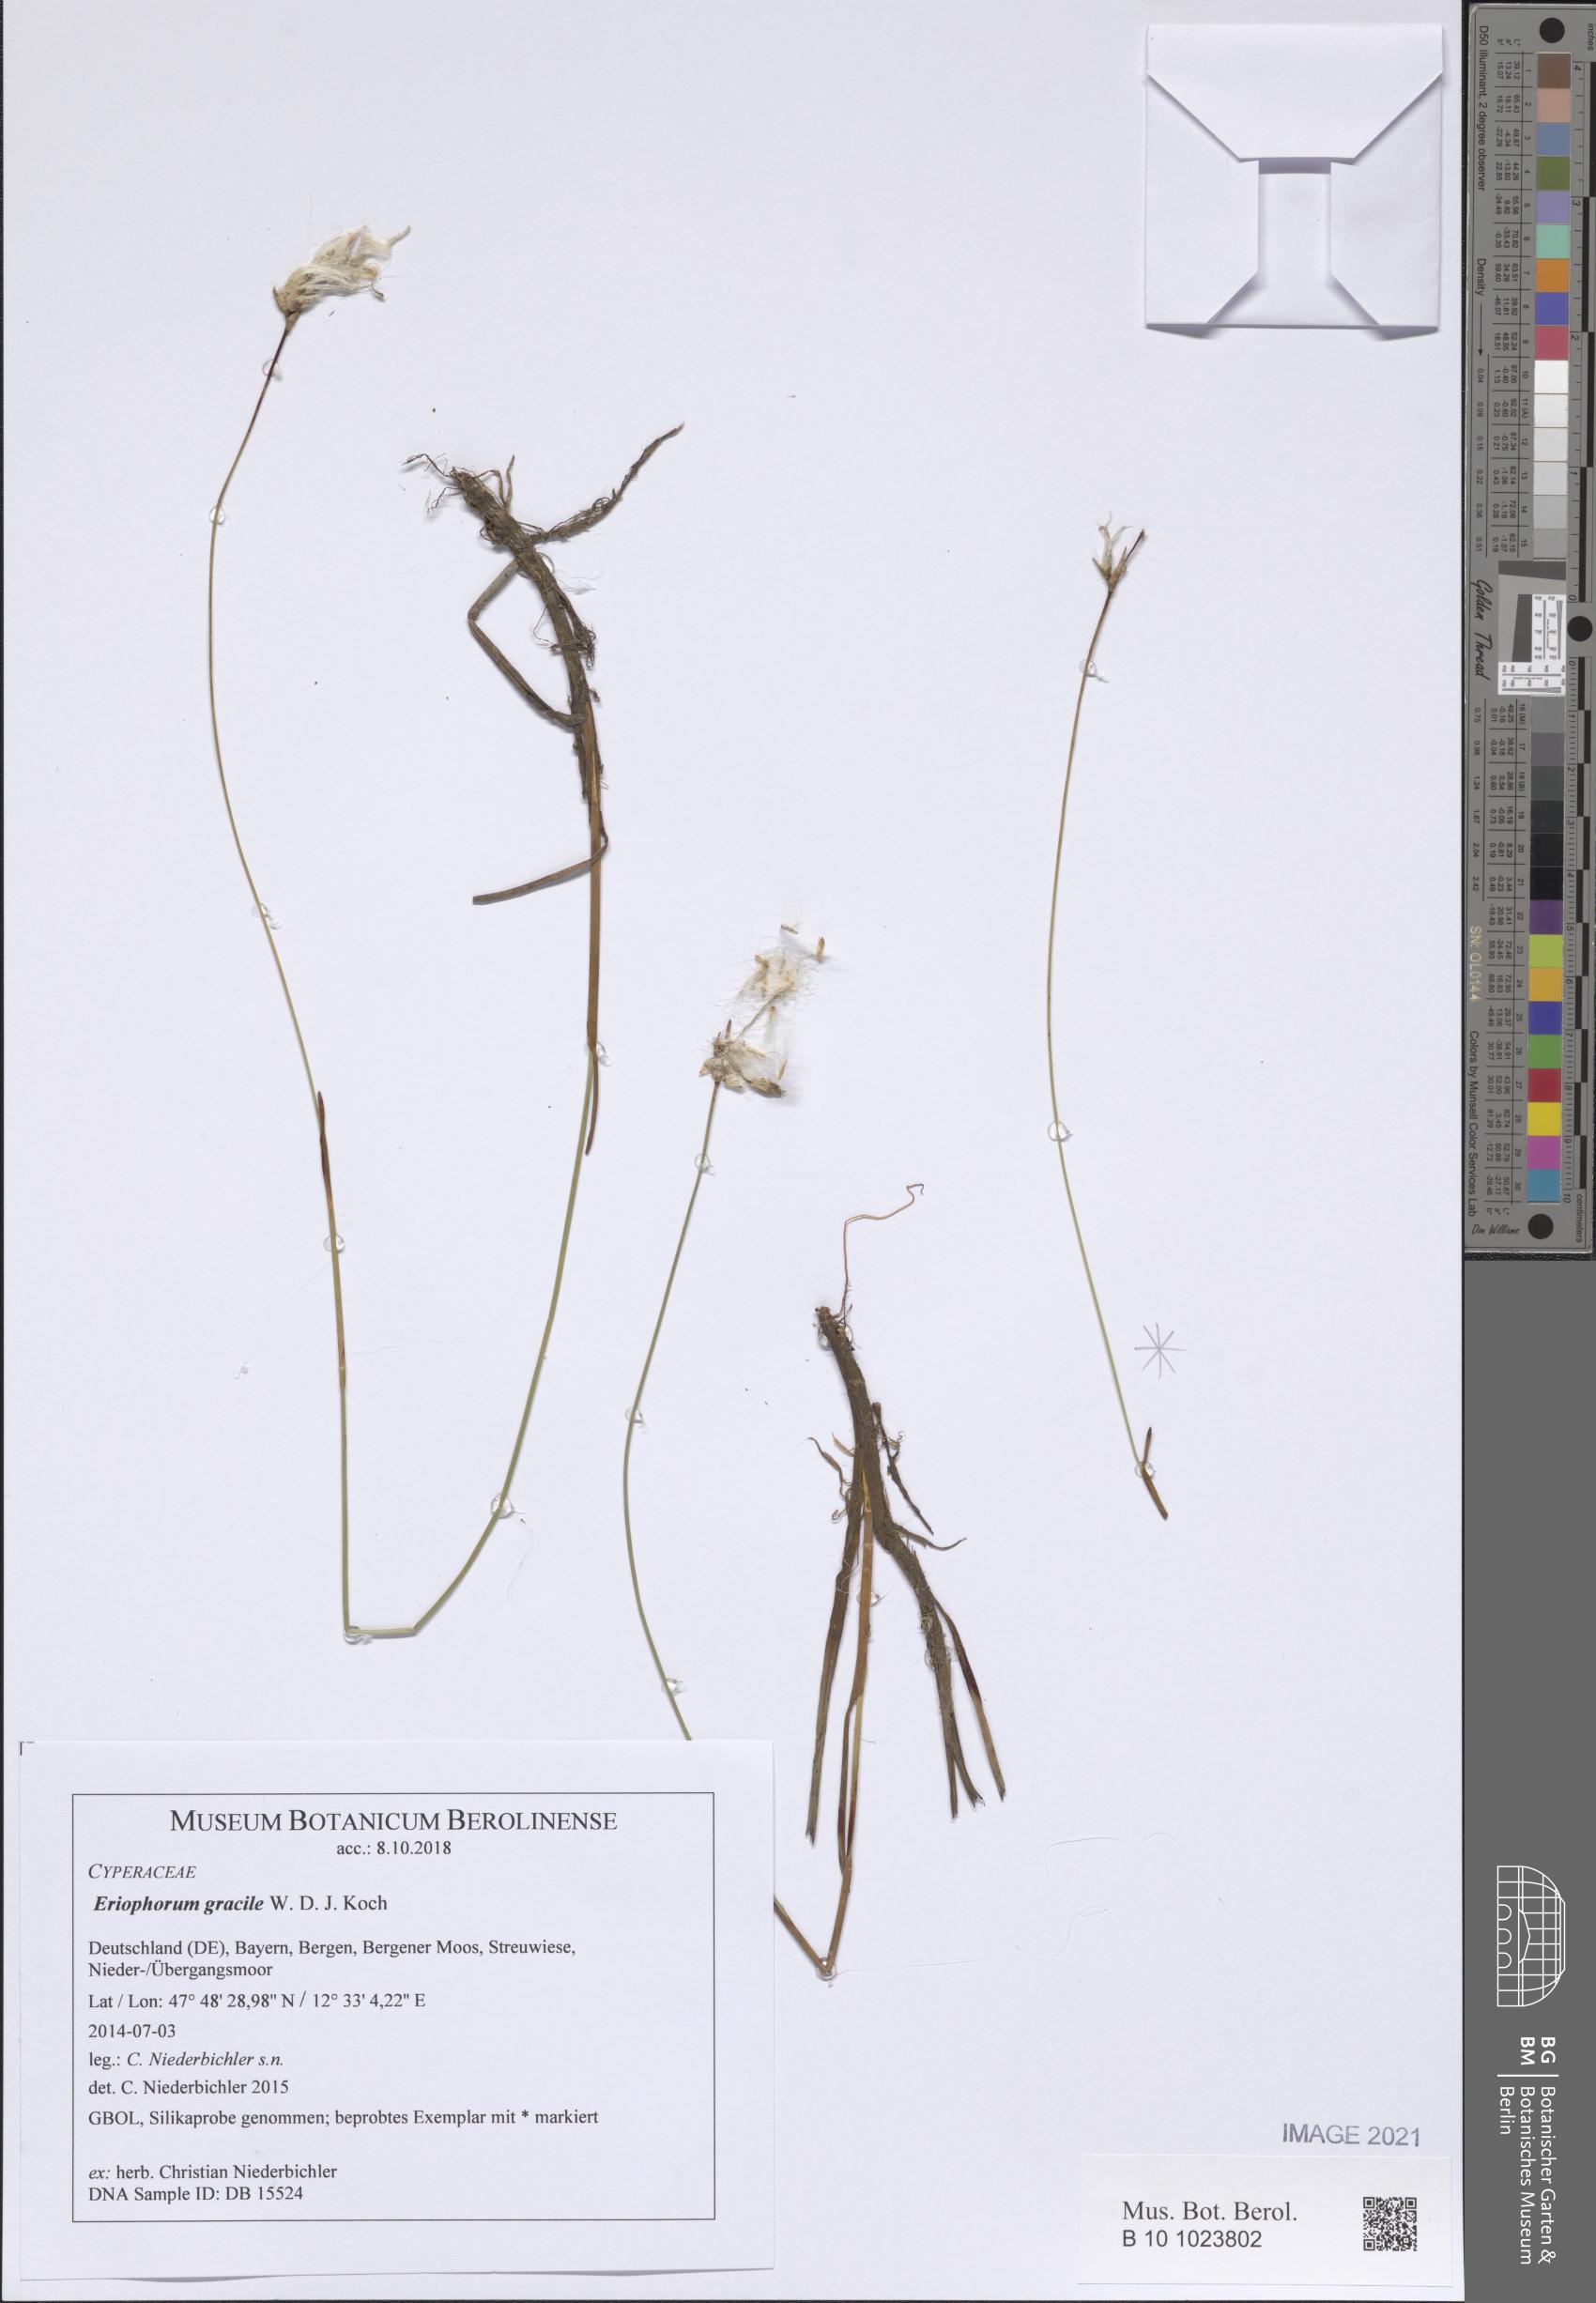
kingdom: Plantae
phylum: Tracheophyta
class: Liliopsida
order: Poales
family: Cyperaceae
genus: Eriophorum
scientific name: Eriophorum gracile
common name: Slender cottongrass
